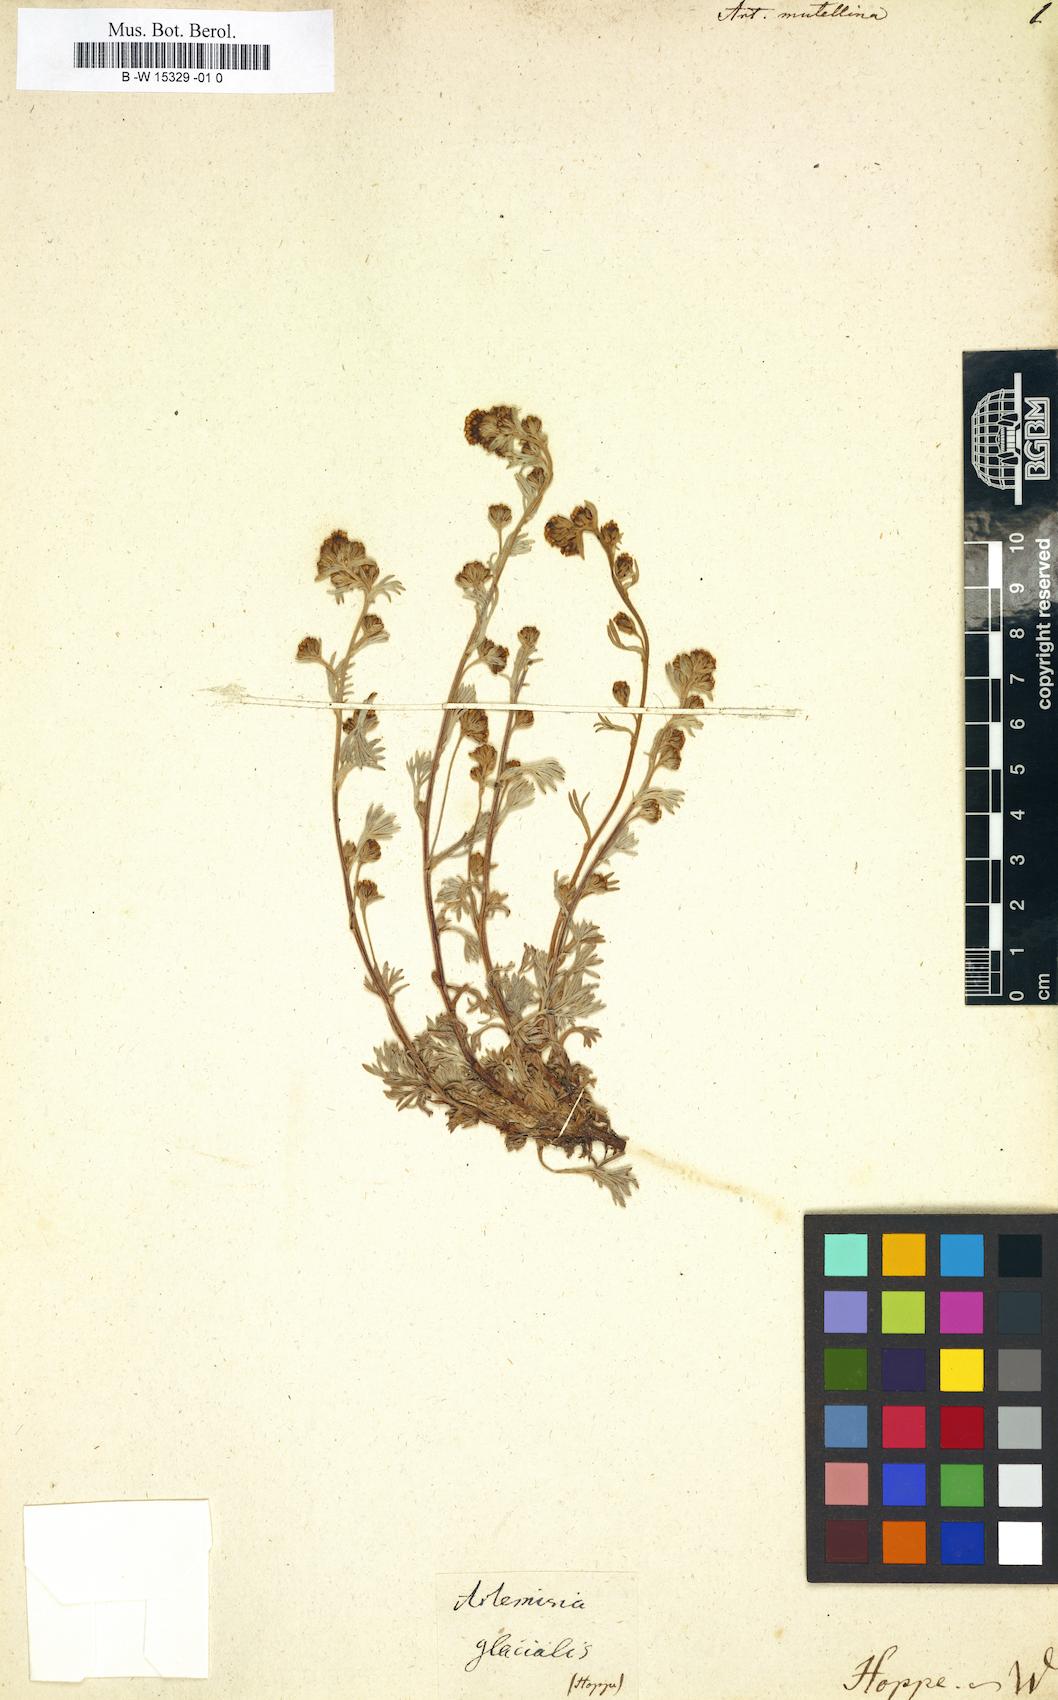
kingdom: Plantae
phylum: Tracheophyta
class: Magnoliopsida
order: Asterales
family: Asteraceae
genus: Artemisia
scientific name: Artemisia mutellina
